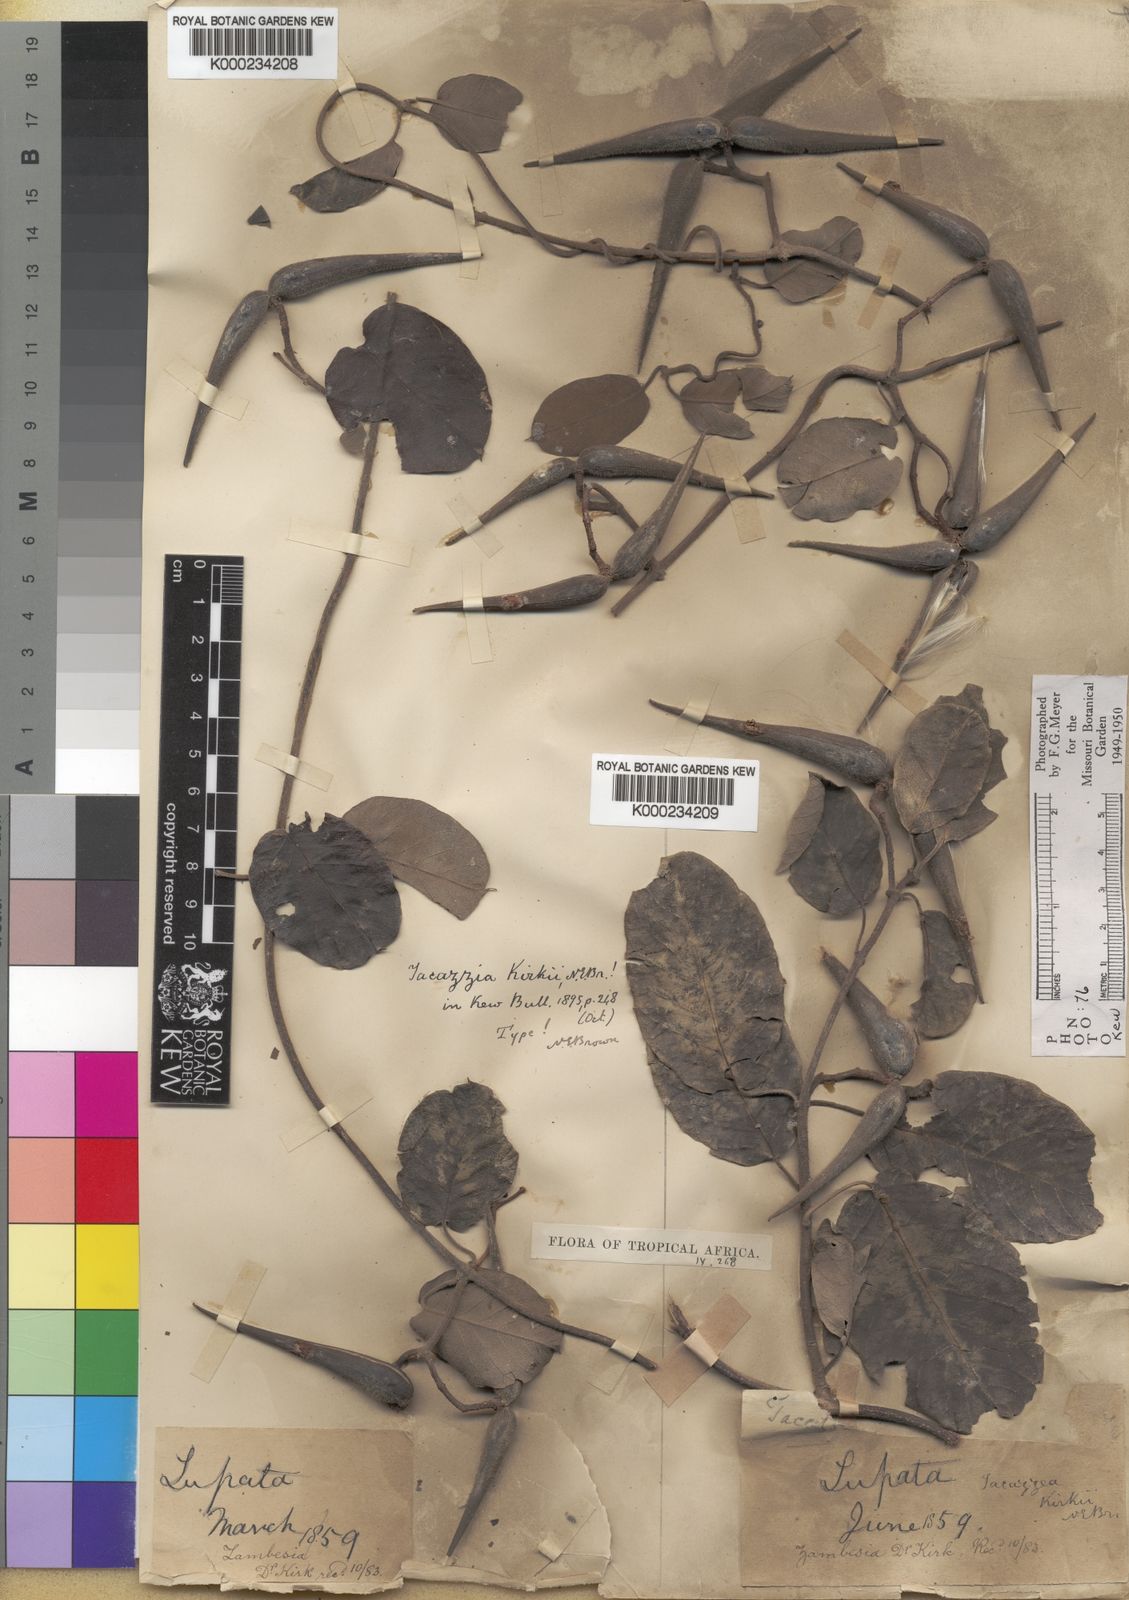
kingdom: Plantae
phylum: Tracheophyta
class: Magnoliopsida
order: Gentianales
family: Apocynaceae
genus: Tacazzea
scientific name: Tacazzea apiculata
